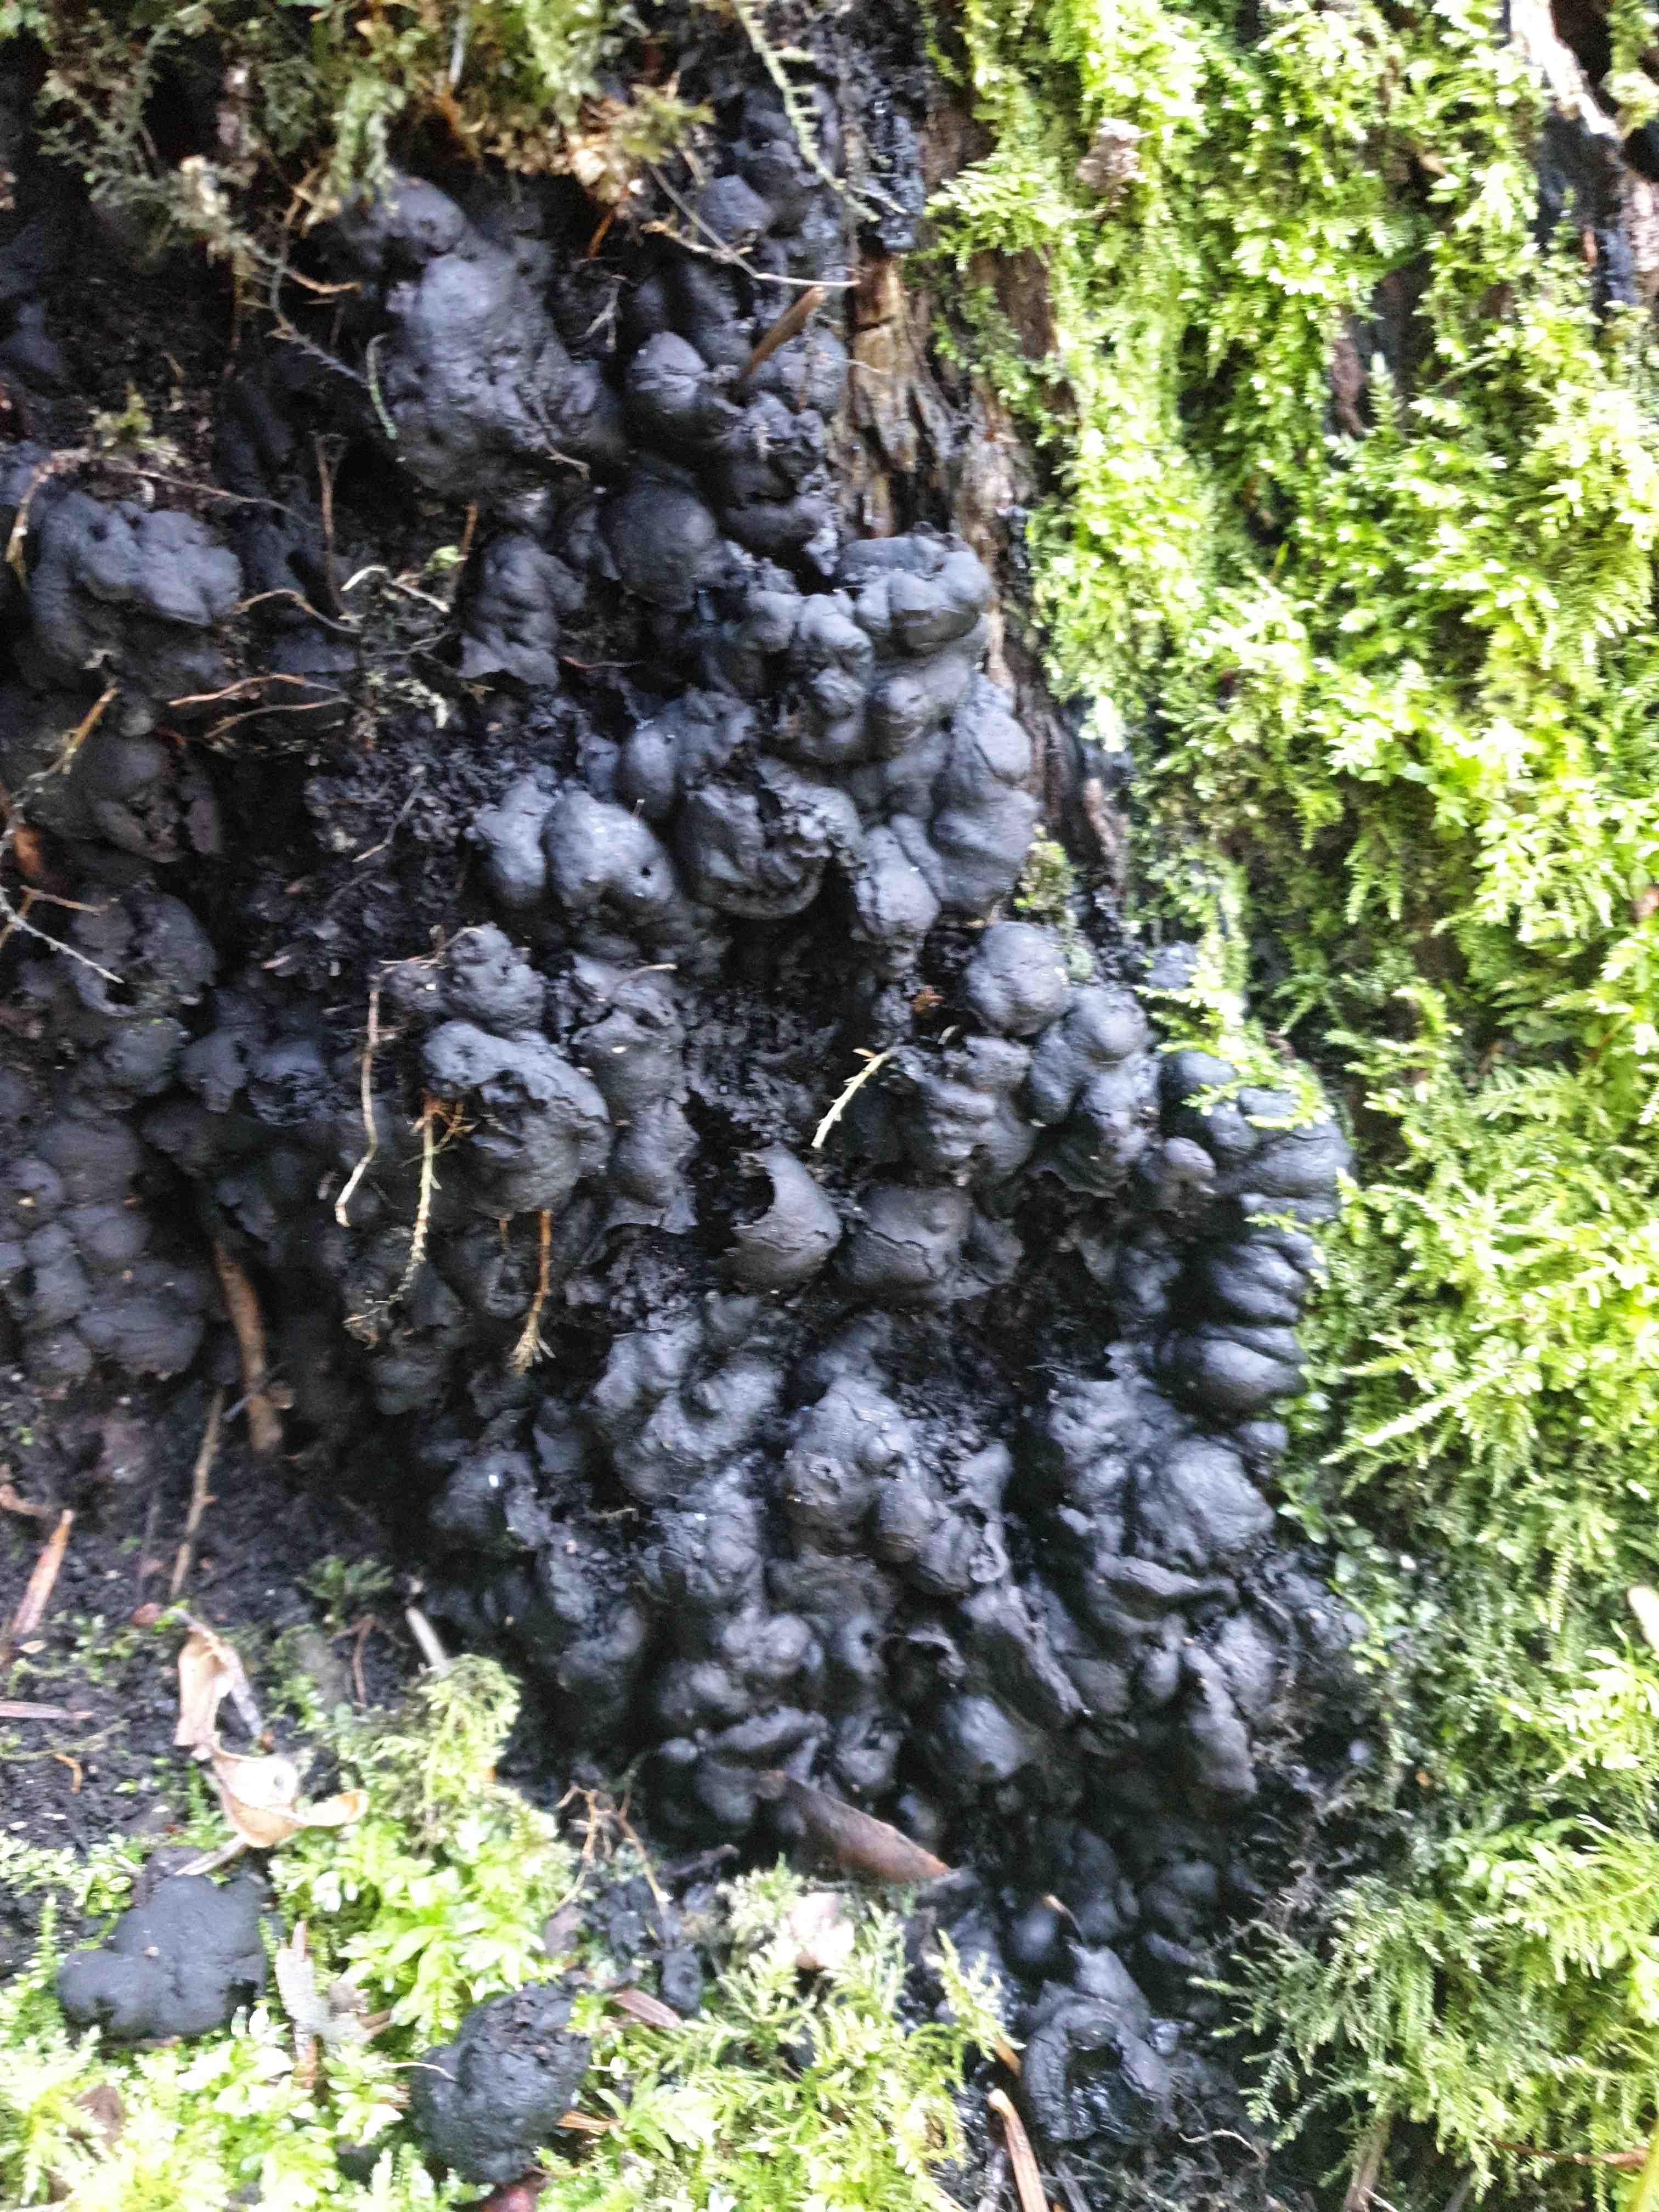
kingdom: Fungi
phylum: Ascomycota
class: Sordariomycetes
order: Xylariales
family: Xylariaceae
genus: Kretzschmaria
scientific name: Kretzschmaria deusta
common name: stor kulsvamp
